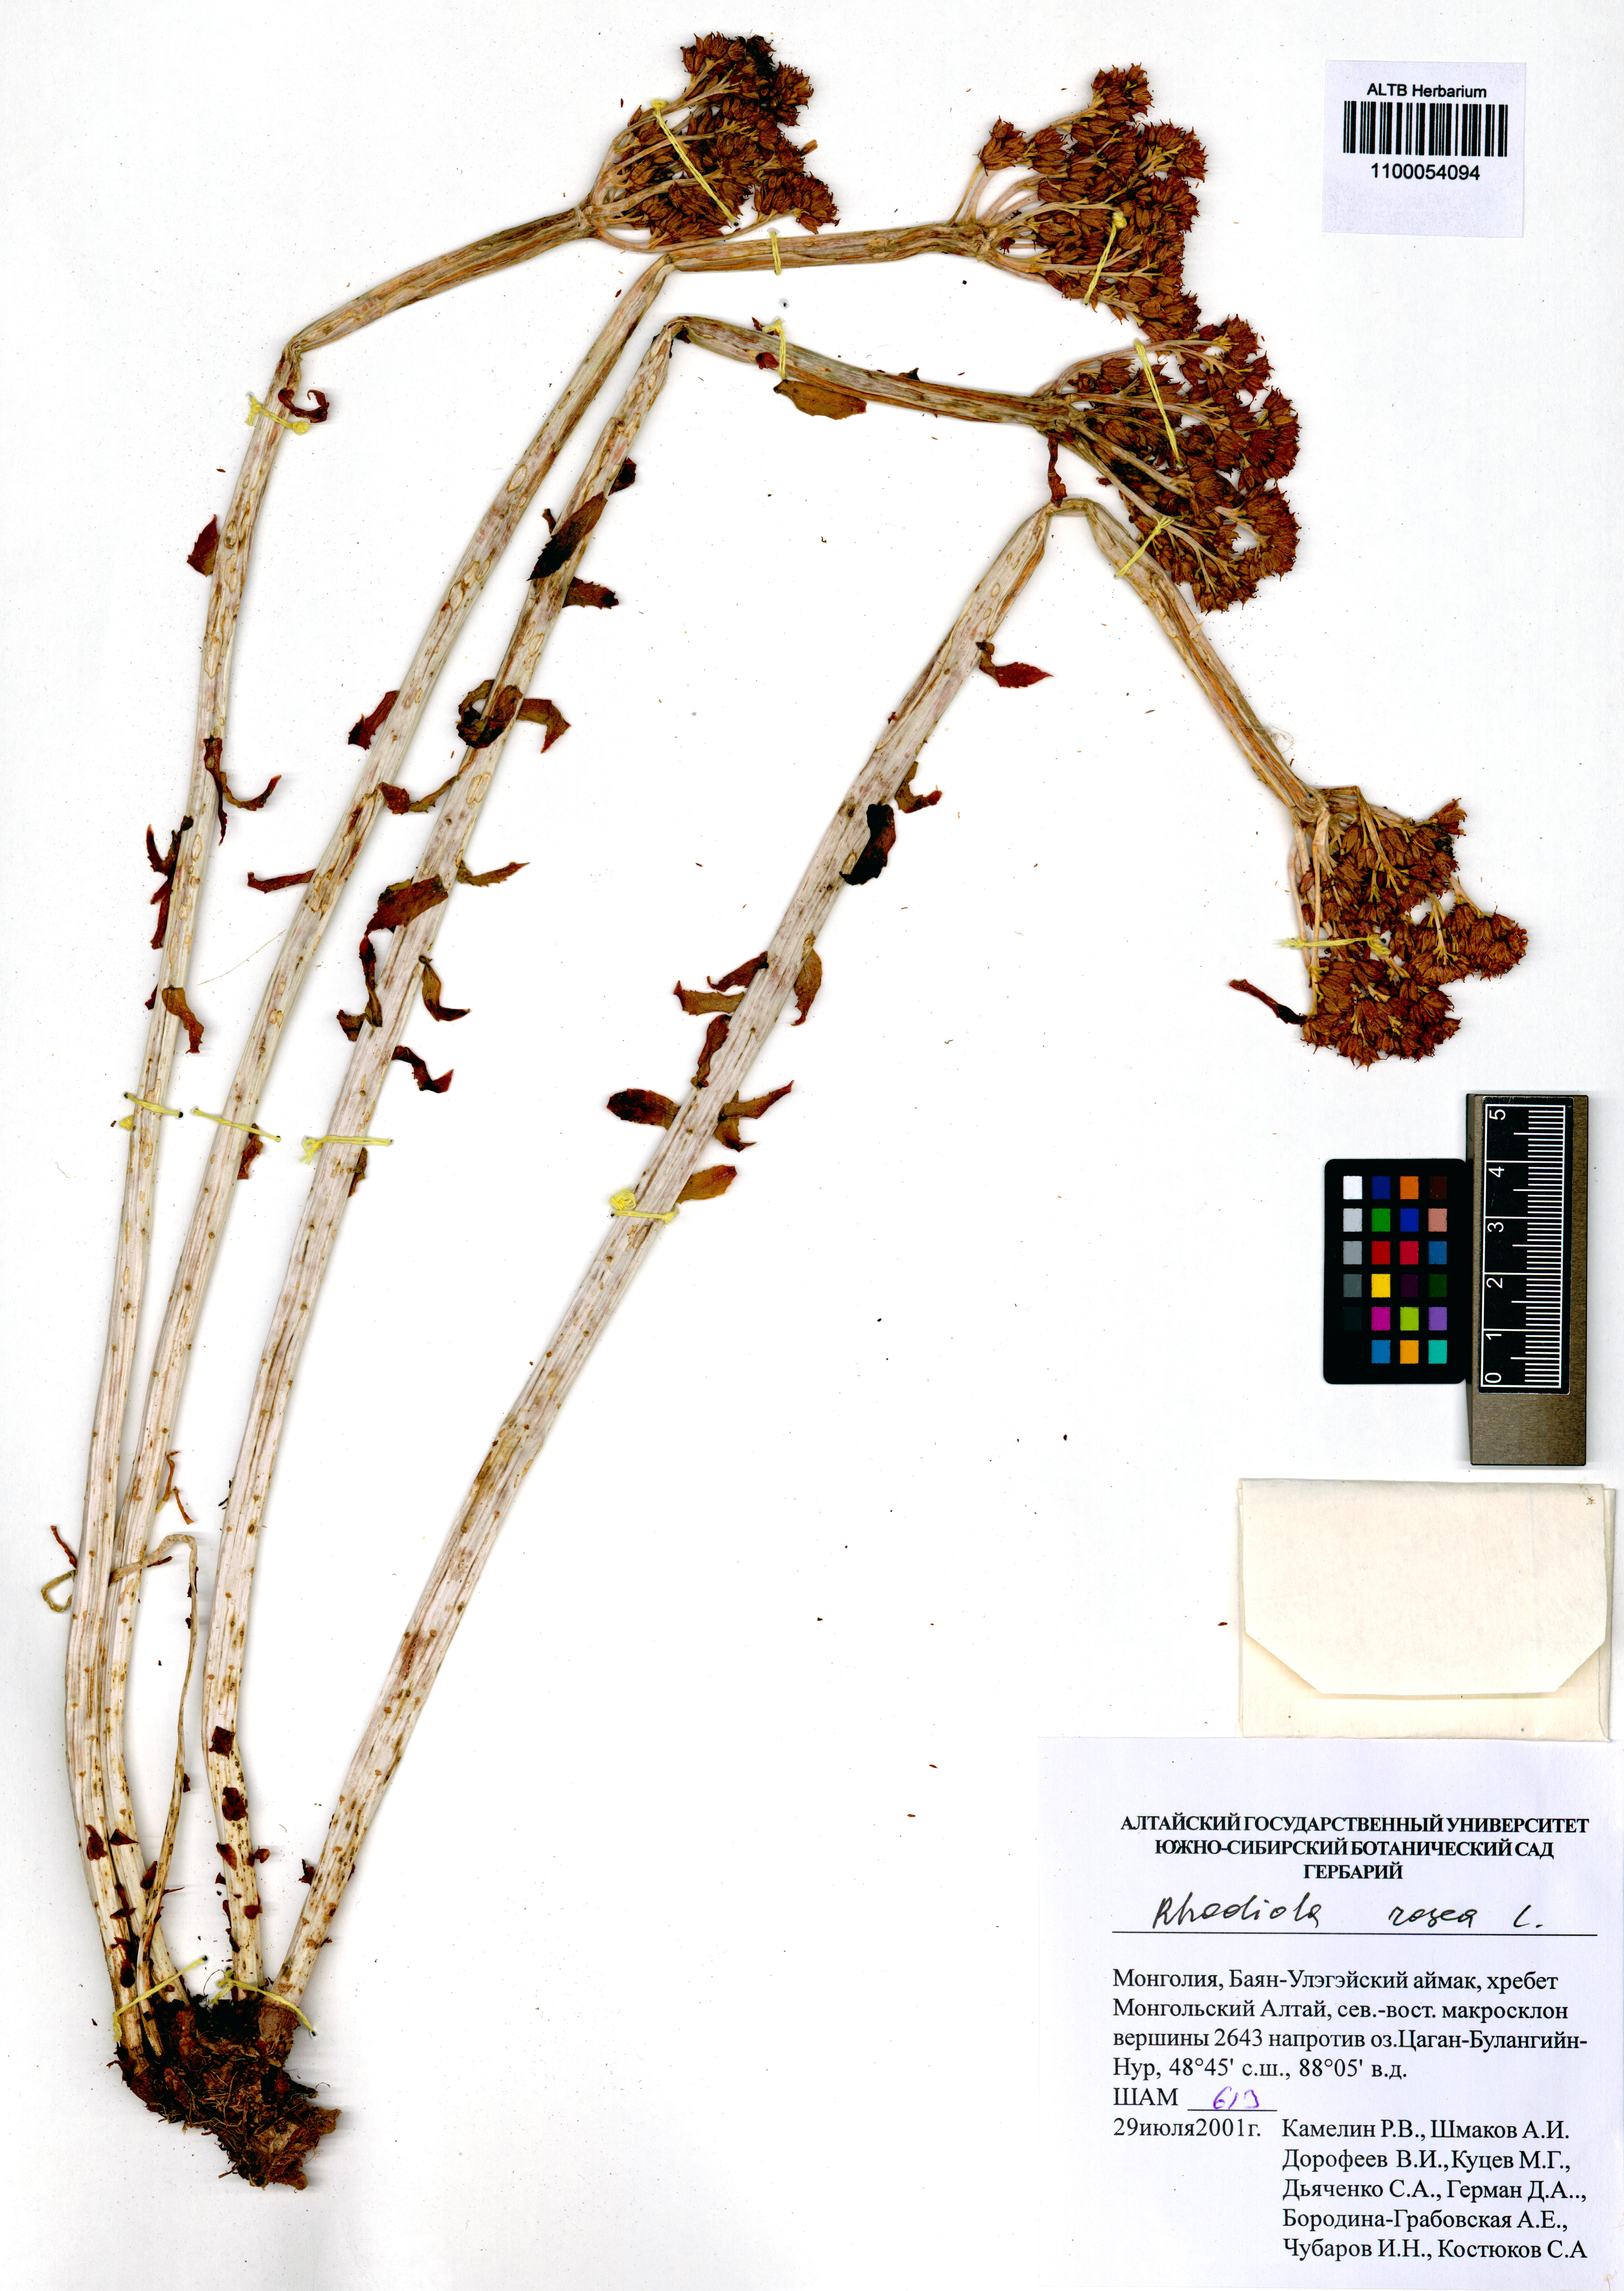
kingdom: Plantae
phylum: Tracheophyta
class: Magnoliopsida
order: Saxifragales
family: Crassulaceae
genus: Rhodiola
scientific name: Rhodiola rosea
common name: Roseroot
